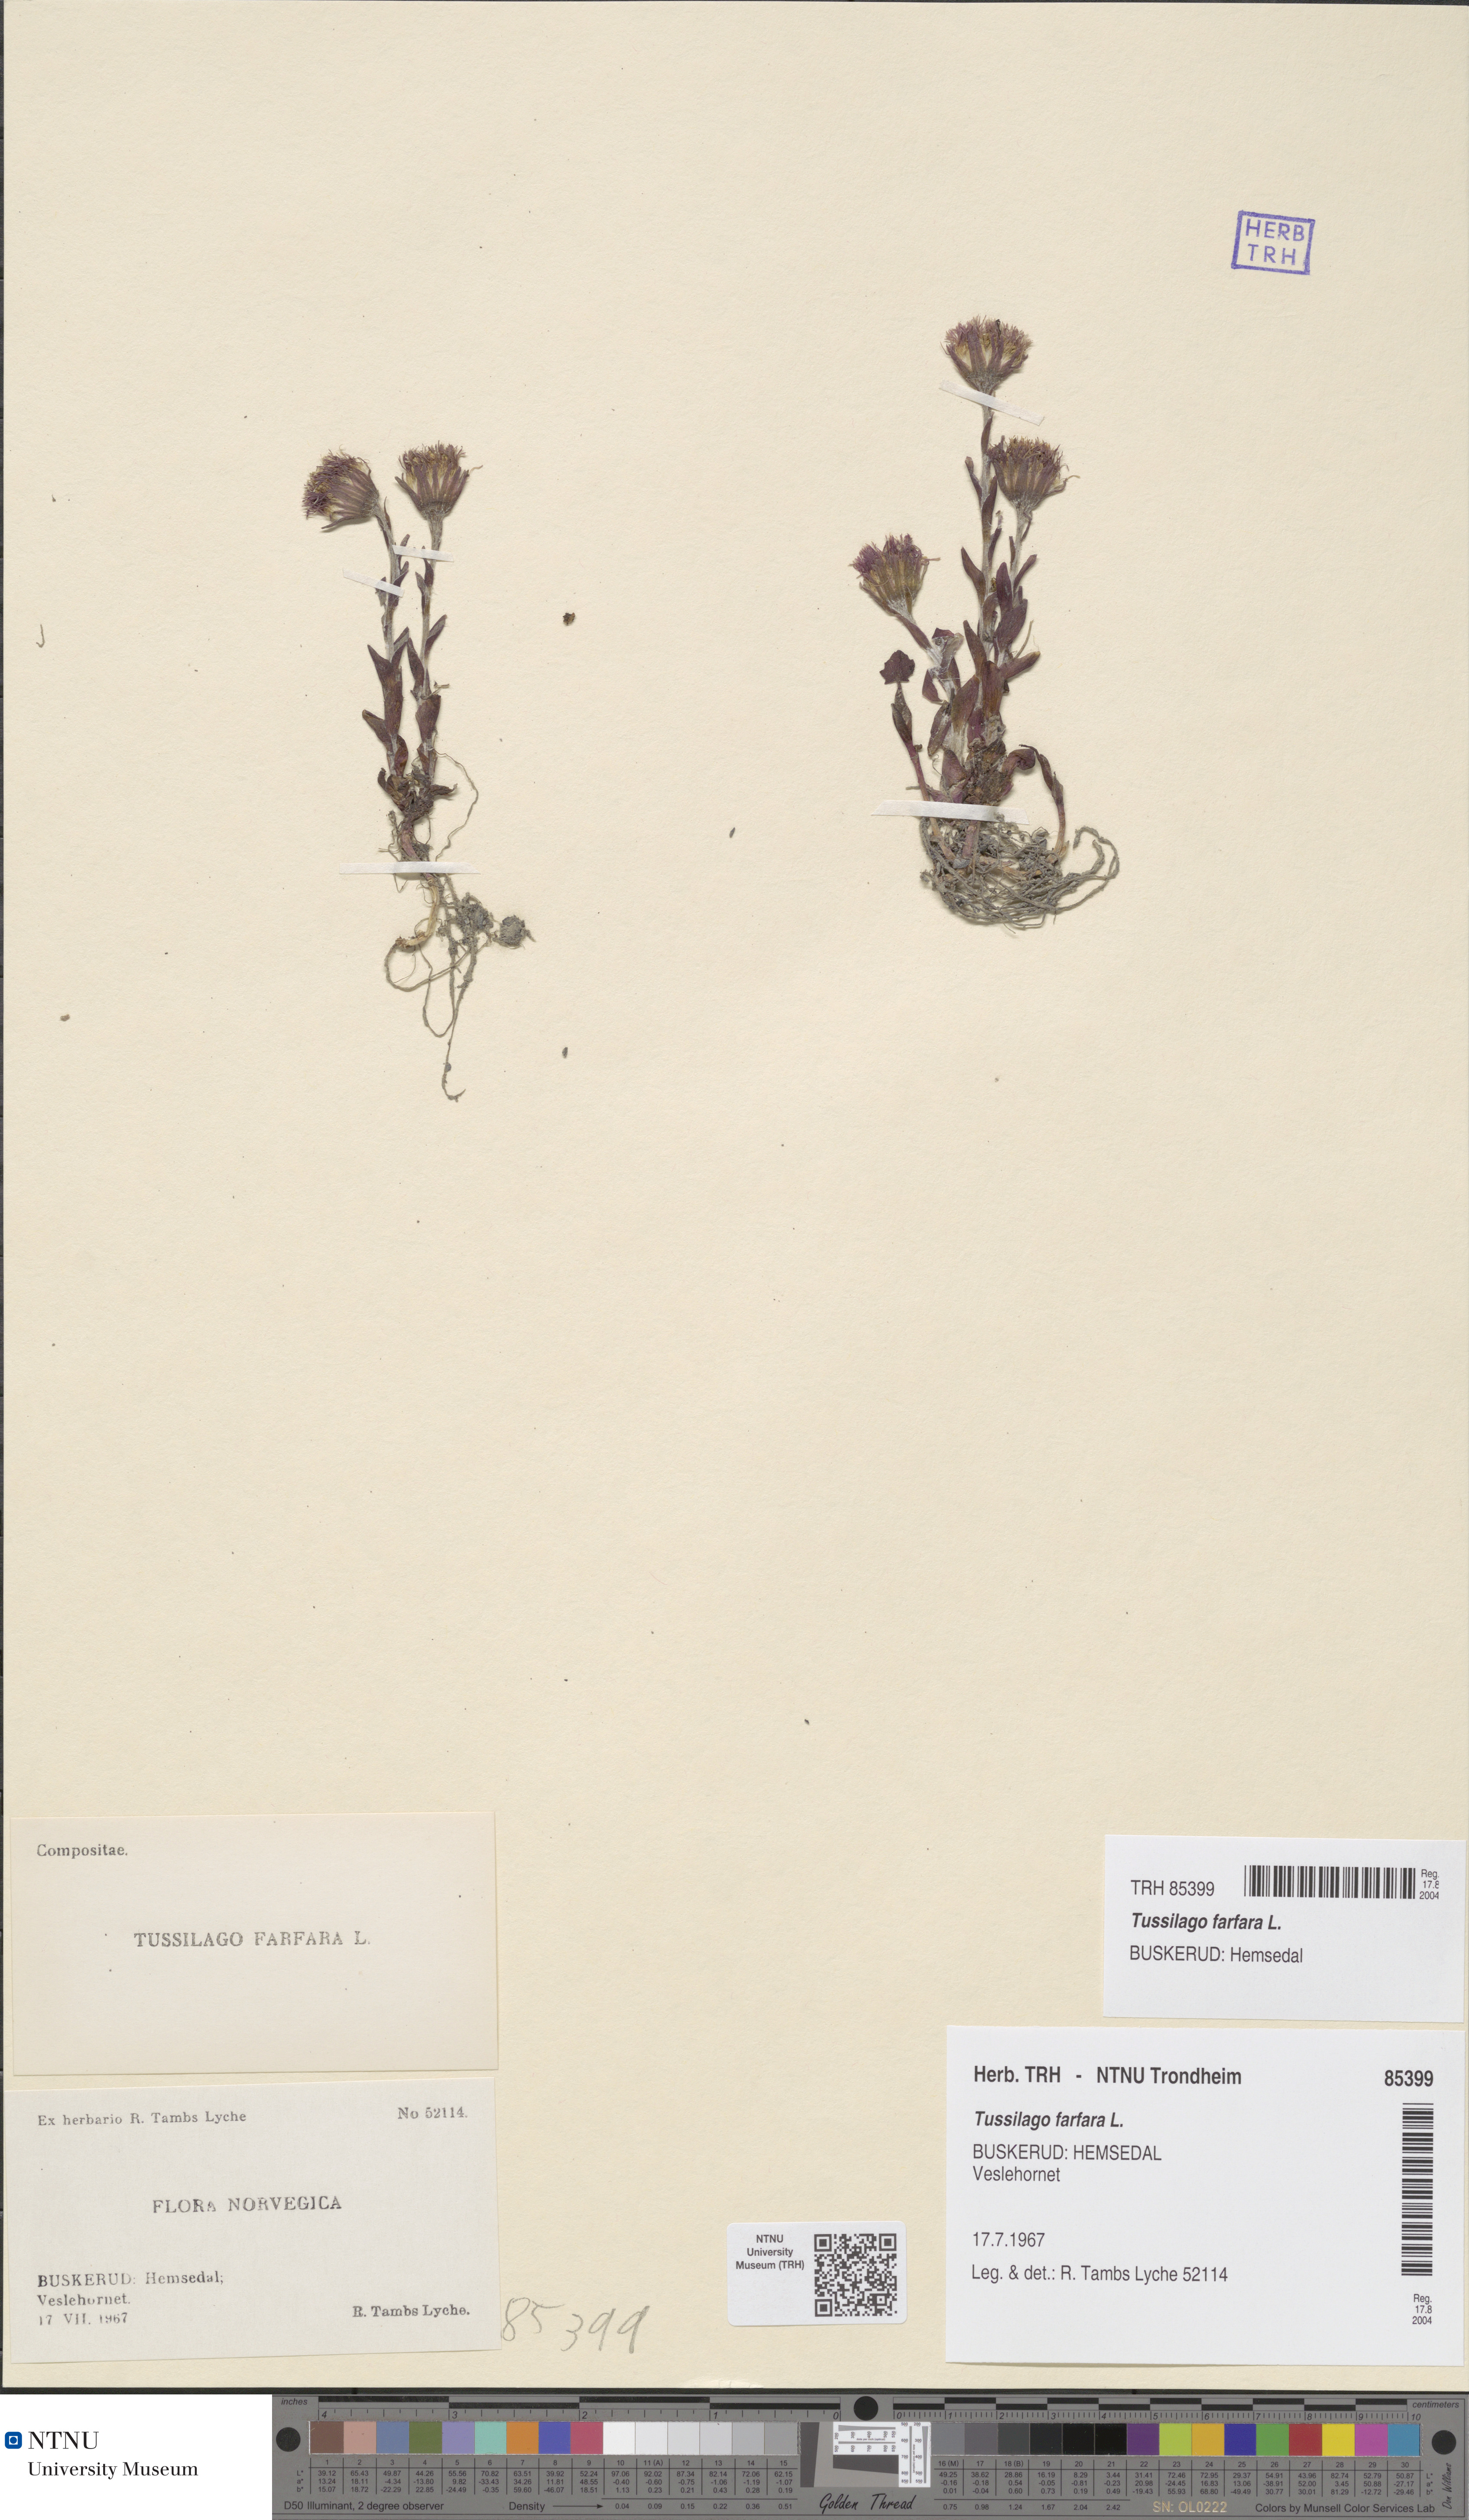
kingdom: Plantae
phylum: Tracheophyta
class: Magnoliopsida
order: Asterales
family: Asteraceae
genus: Tussilago
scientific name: Tussilago farfara
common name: Coltsfoot
